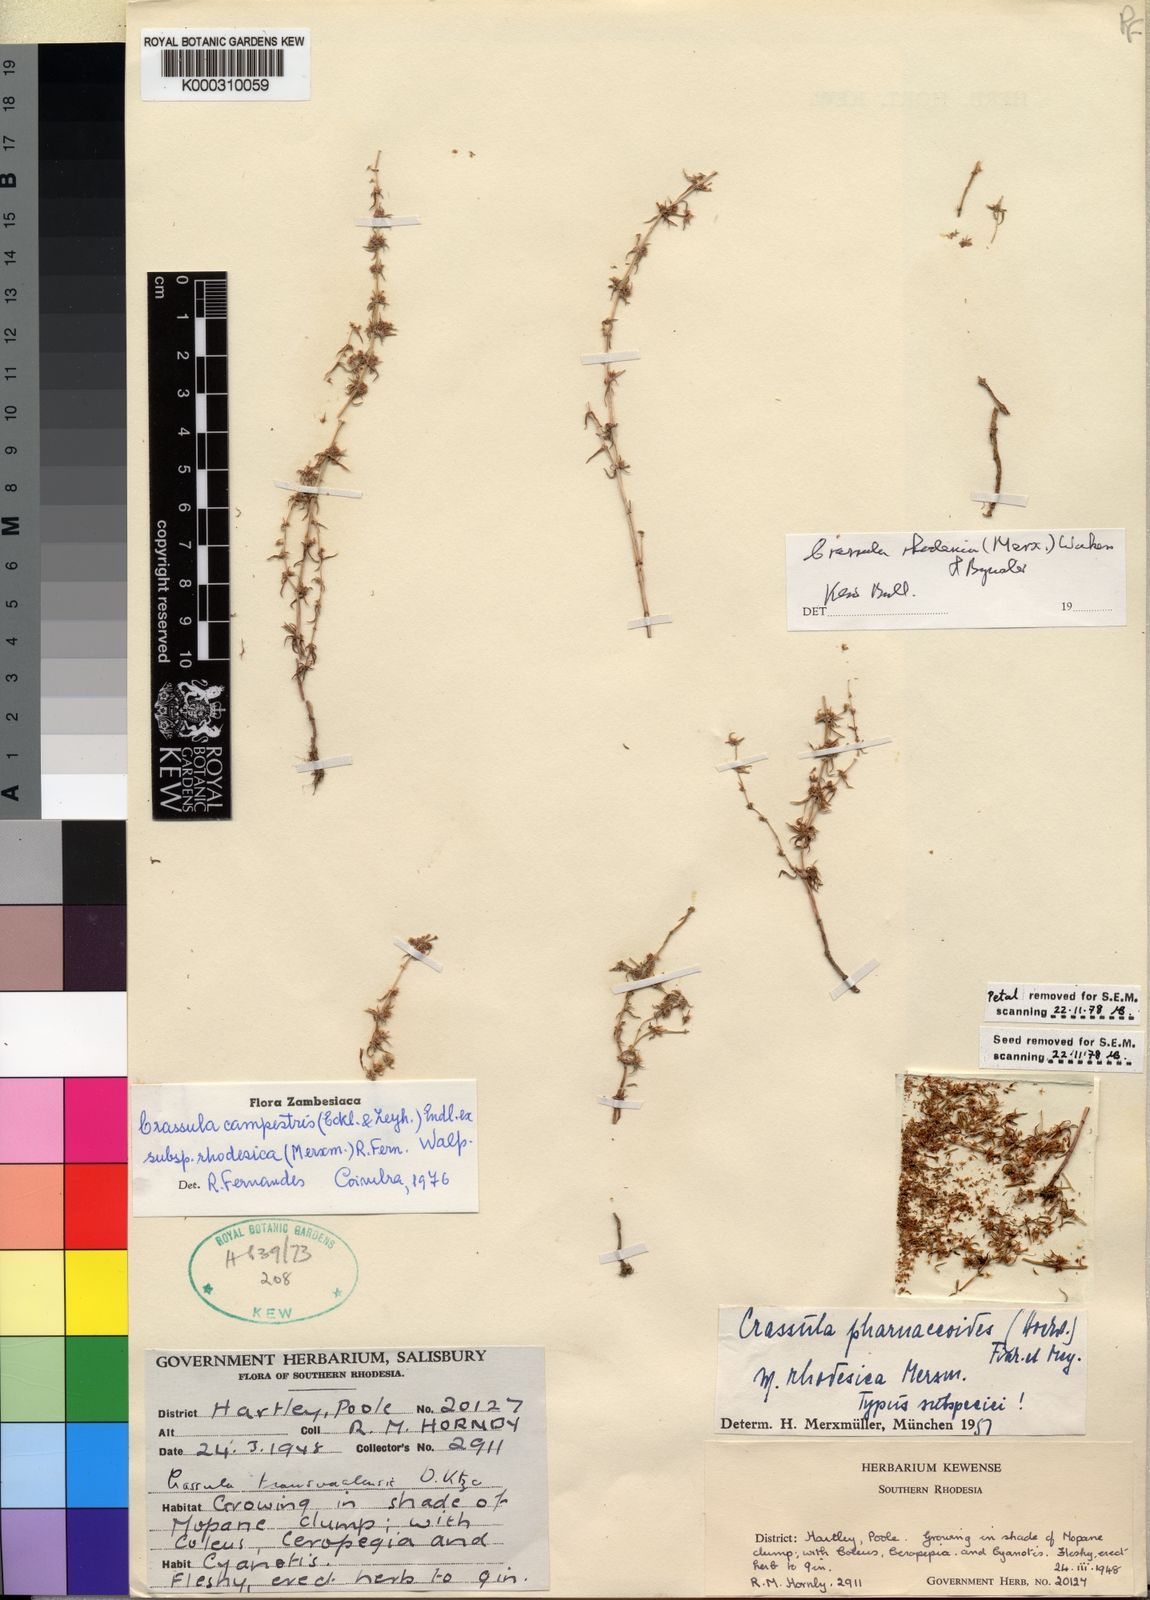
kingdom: Plantae
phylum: Tracheophyta
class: Magnoliopsida
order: Saxifragales
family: Crassulaceae
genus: Crassula
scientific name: Crassula rhodesica
